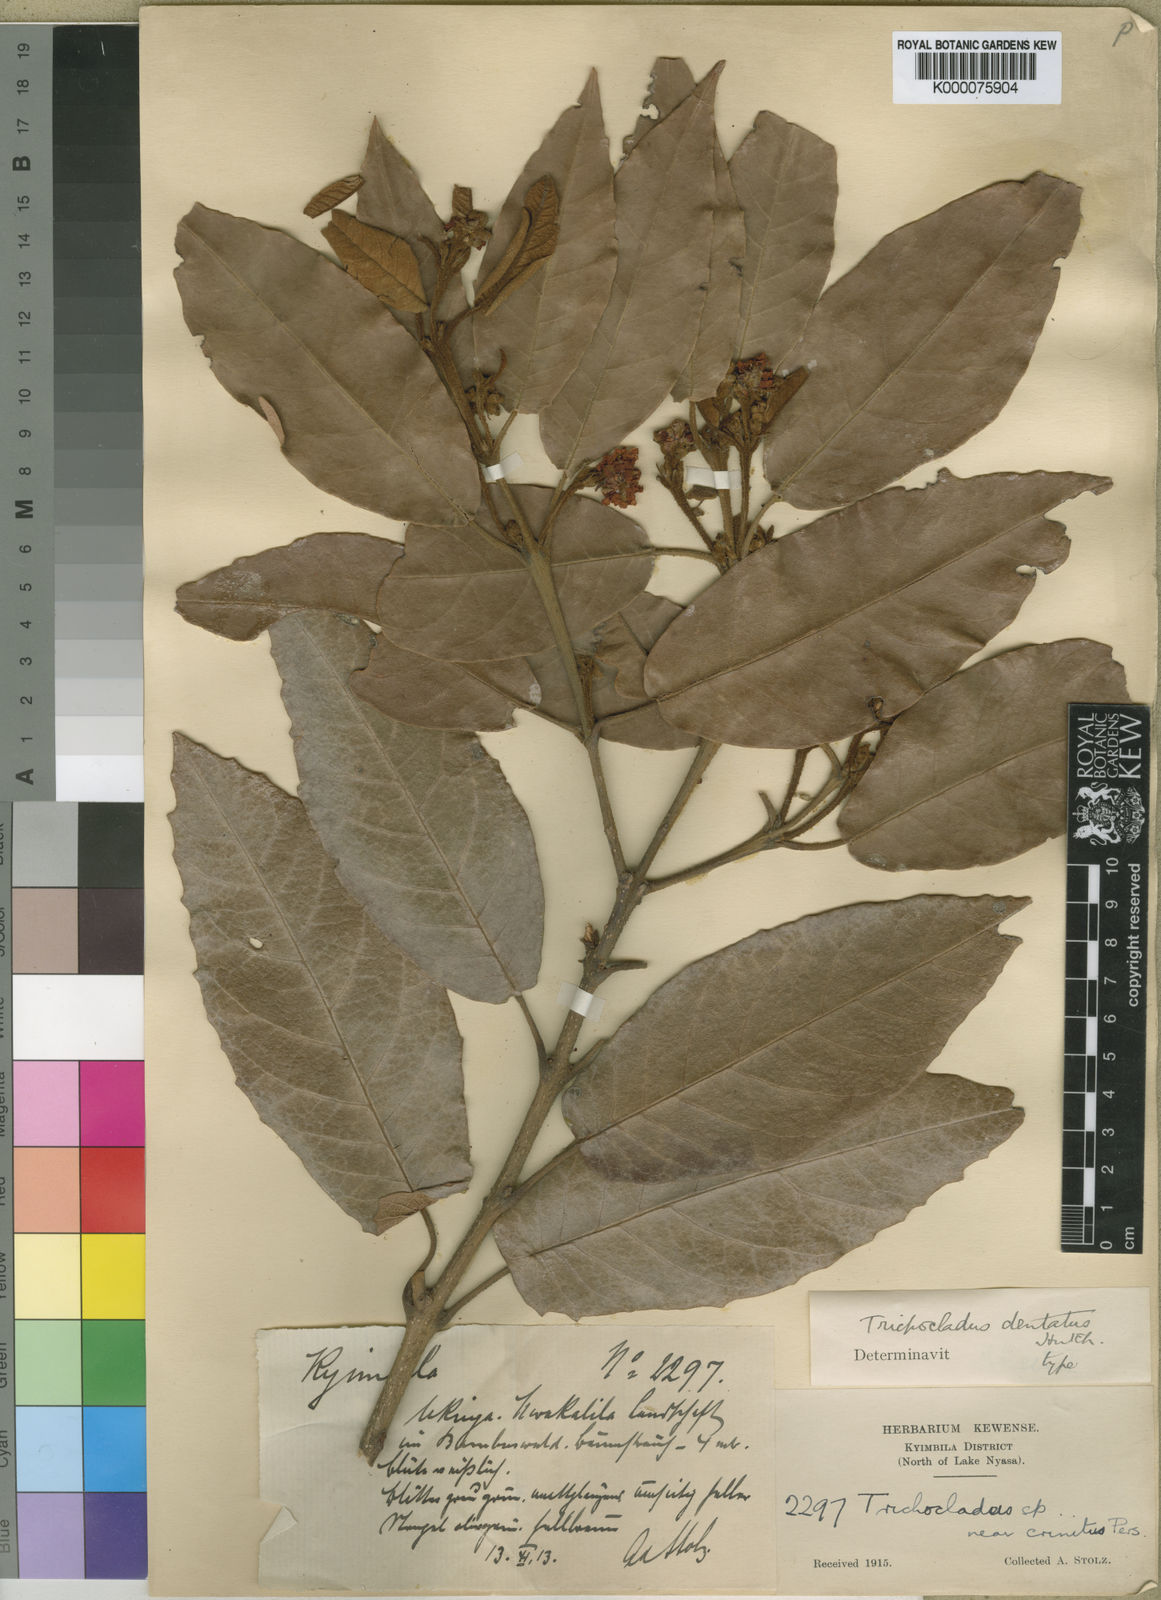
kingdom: Plantae
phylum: Tracheophyta
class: Magnoliopsida
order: Saxifragales
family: Hamamelidaceae
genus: Trichocladus
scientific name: Trichocladus goetzei
